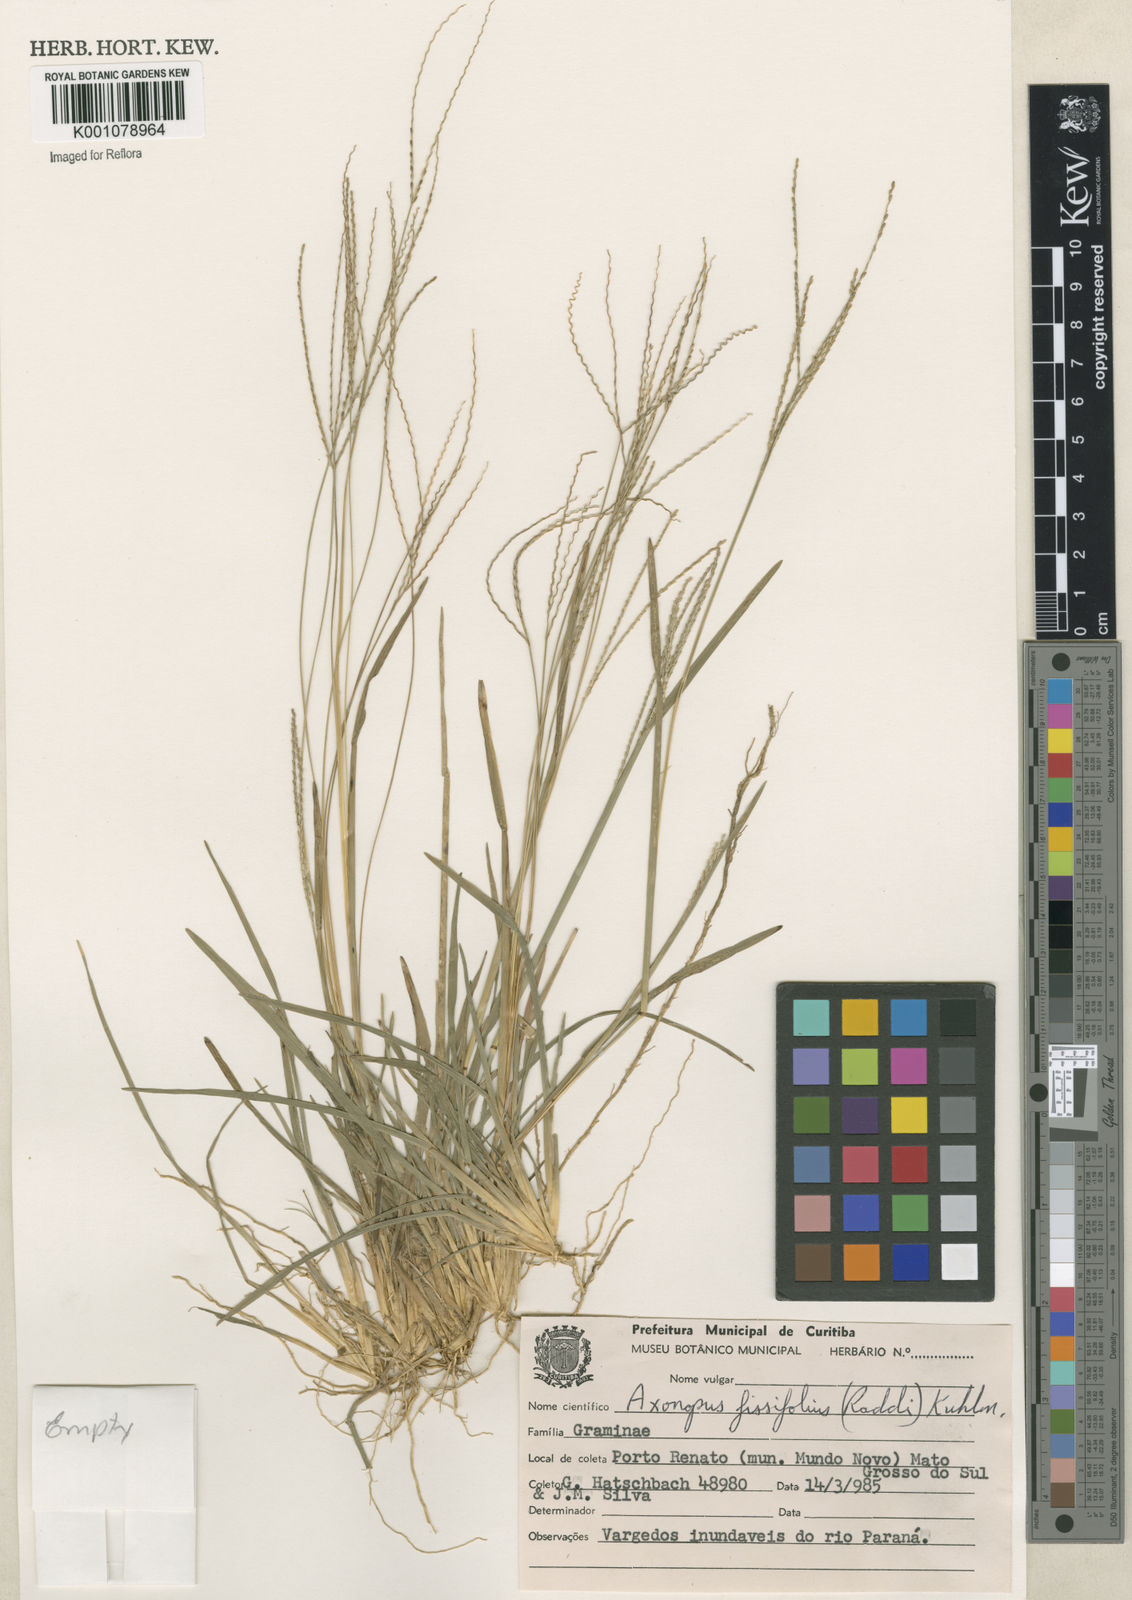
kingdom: Plantae
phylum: Tracheophyta
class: Liliopsida
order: Poales
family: Poaceae
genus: Axonopus
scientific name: Axonopus fissifolius
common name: Common carpetgrass
